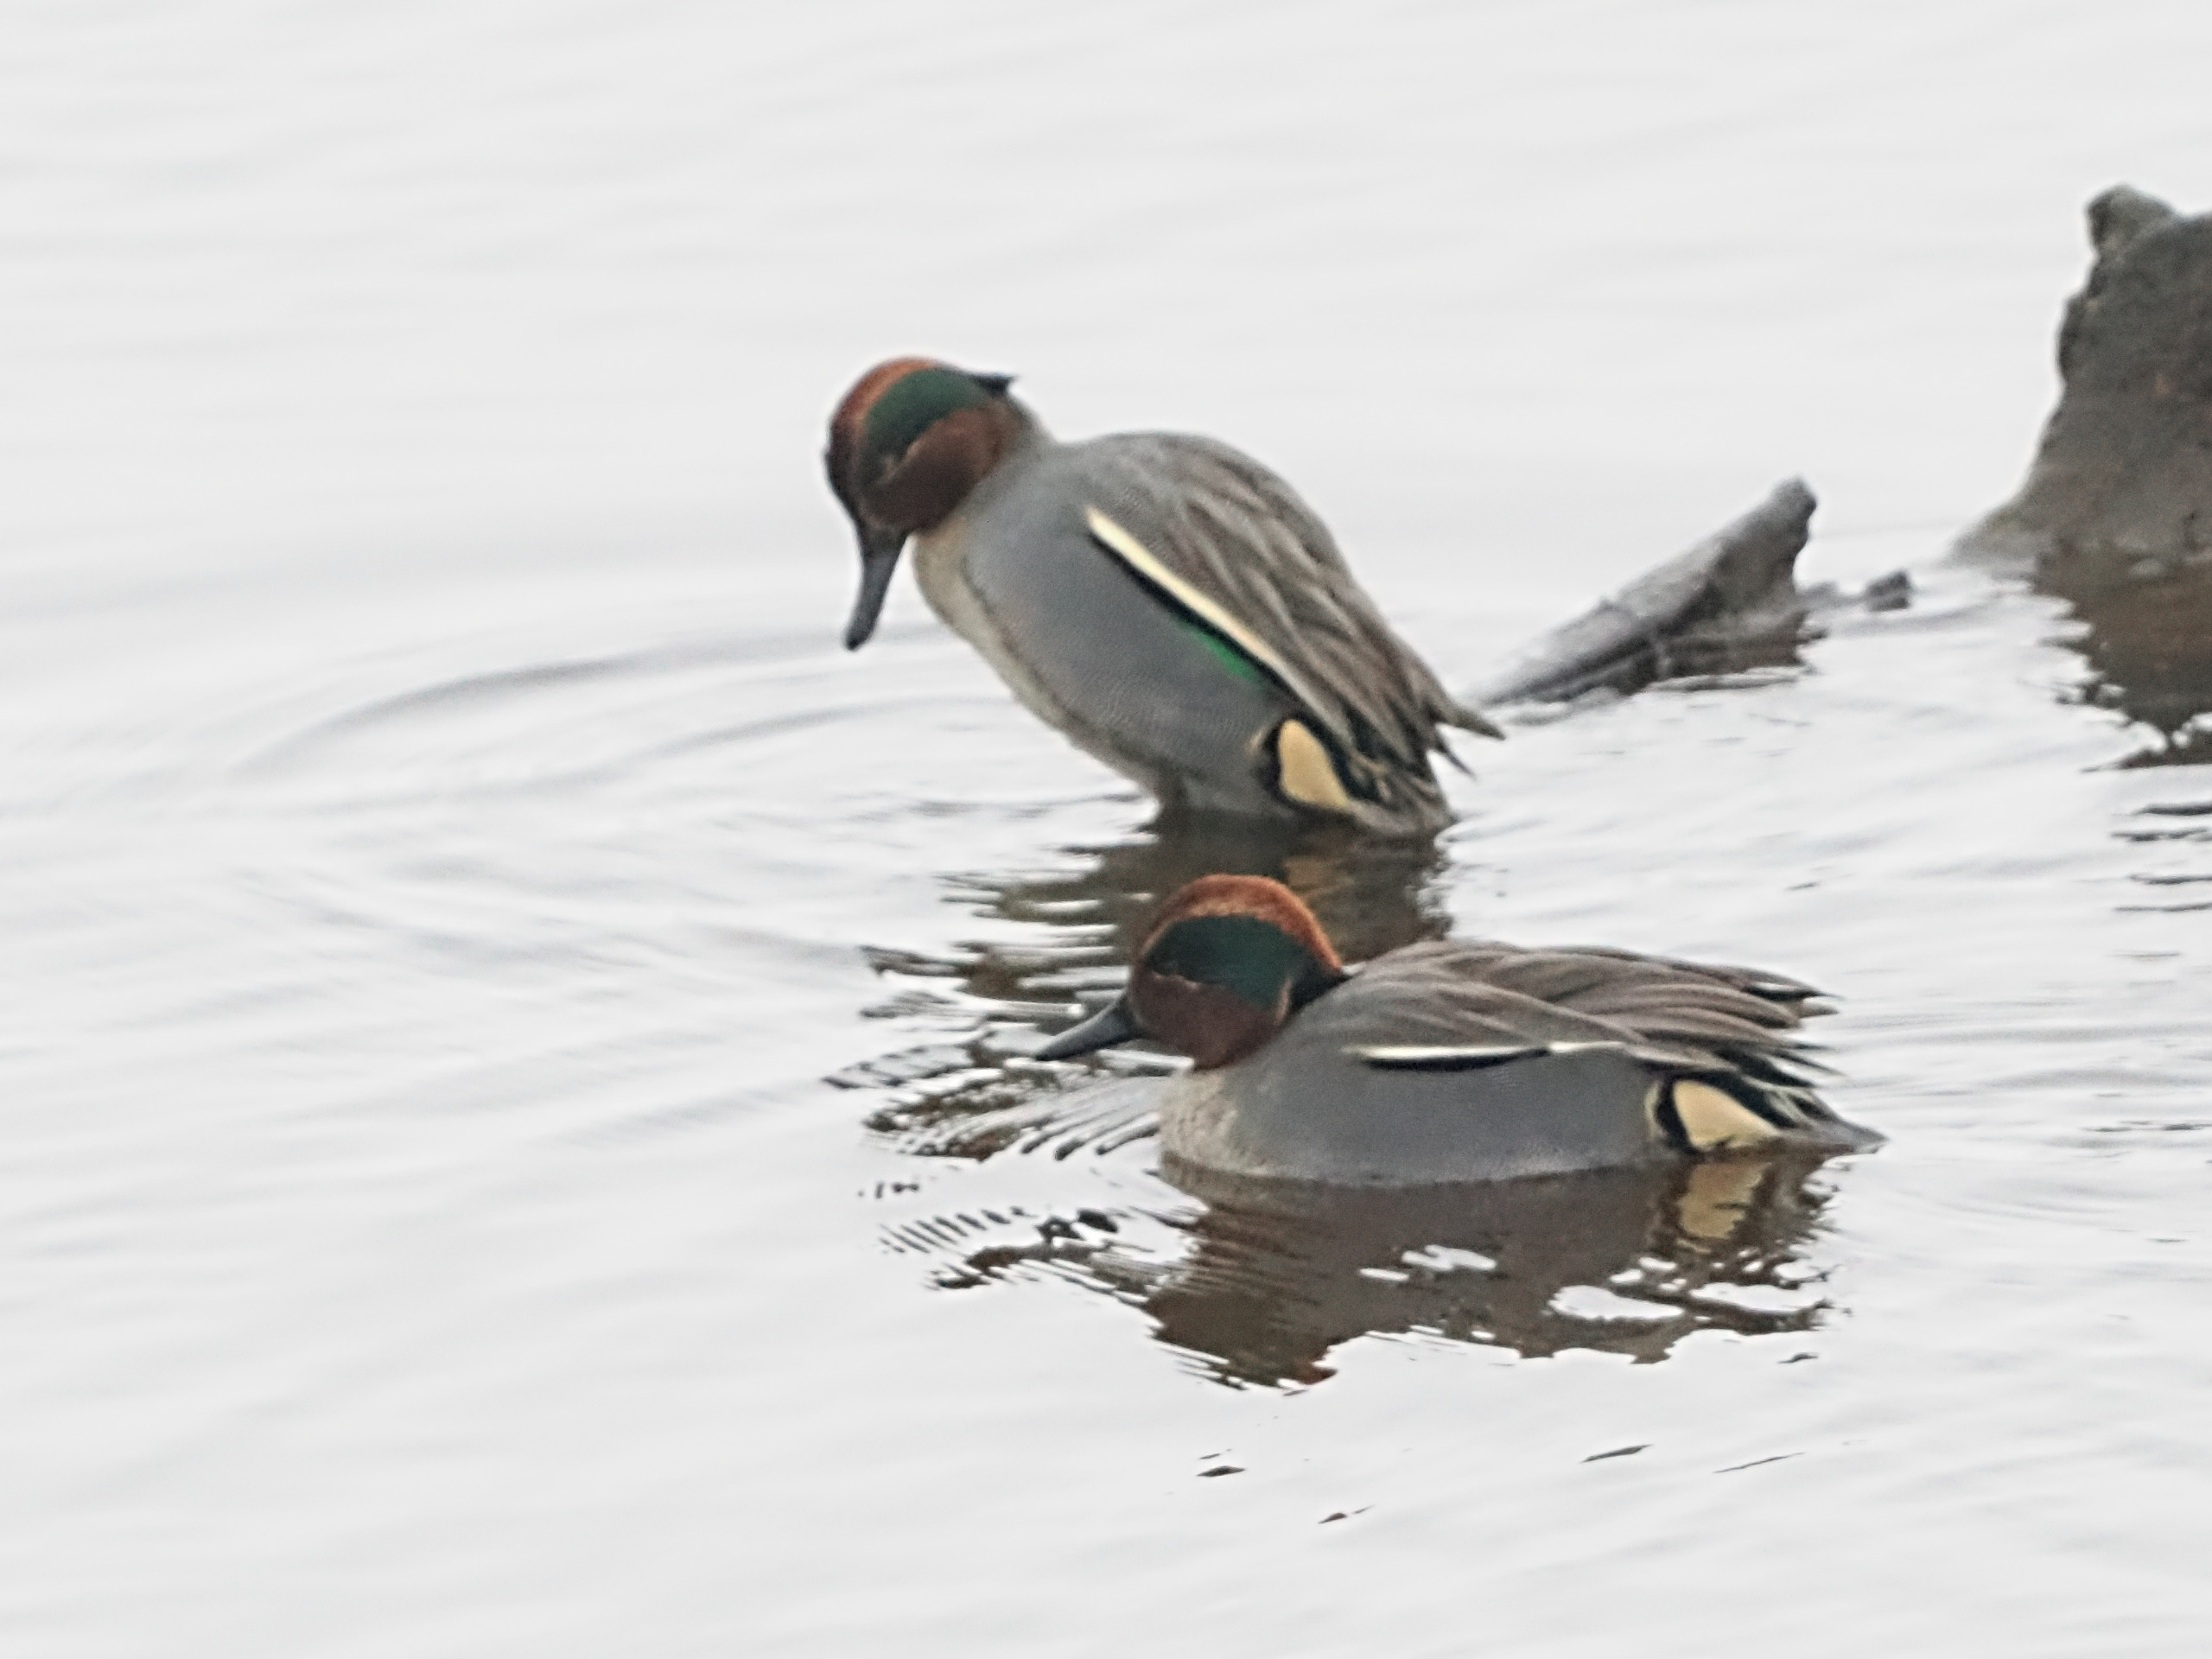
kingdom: Animalia
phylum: Chordata
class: Aves
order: Anseriformes
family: Anatidae
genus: Anas
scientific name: Anas crecca
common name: Krikand
